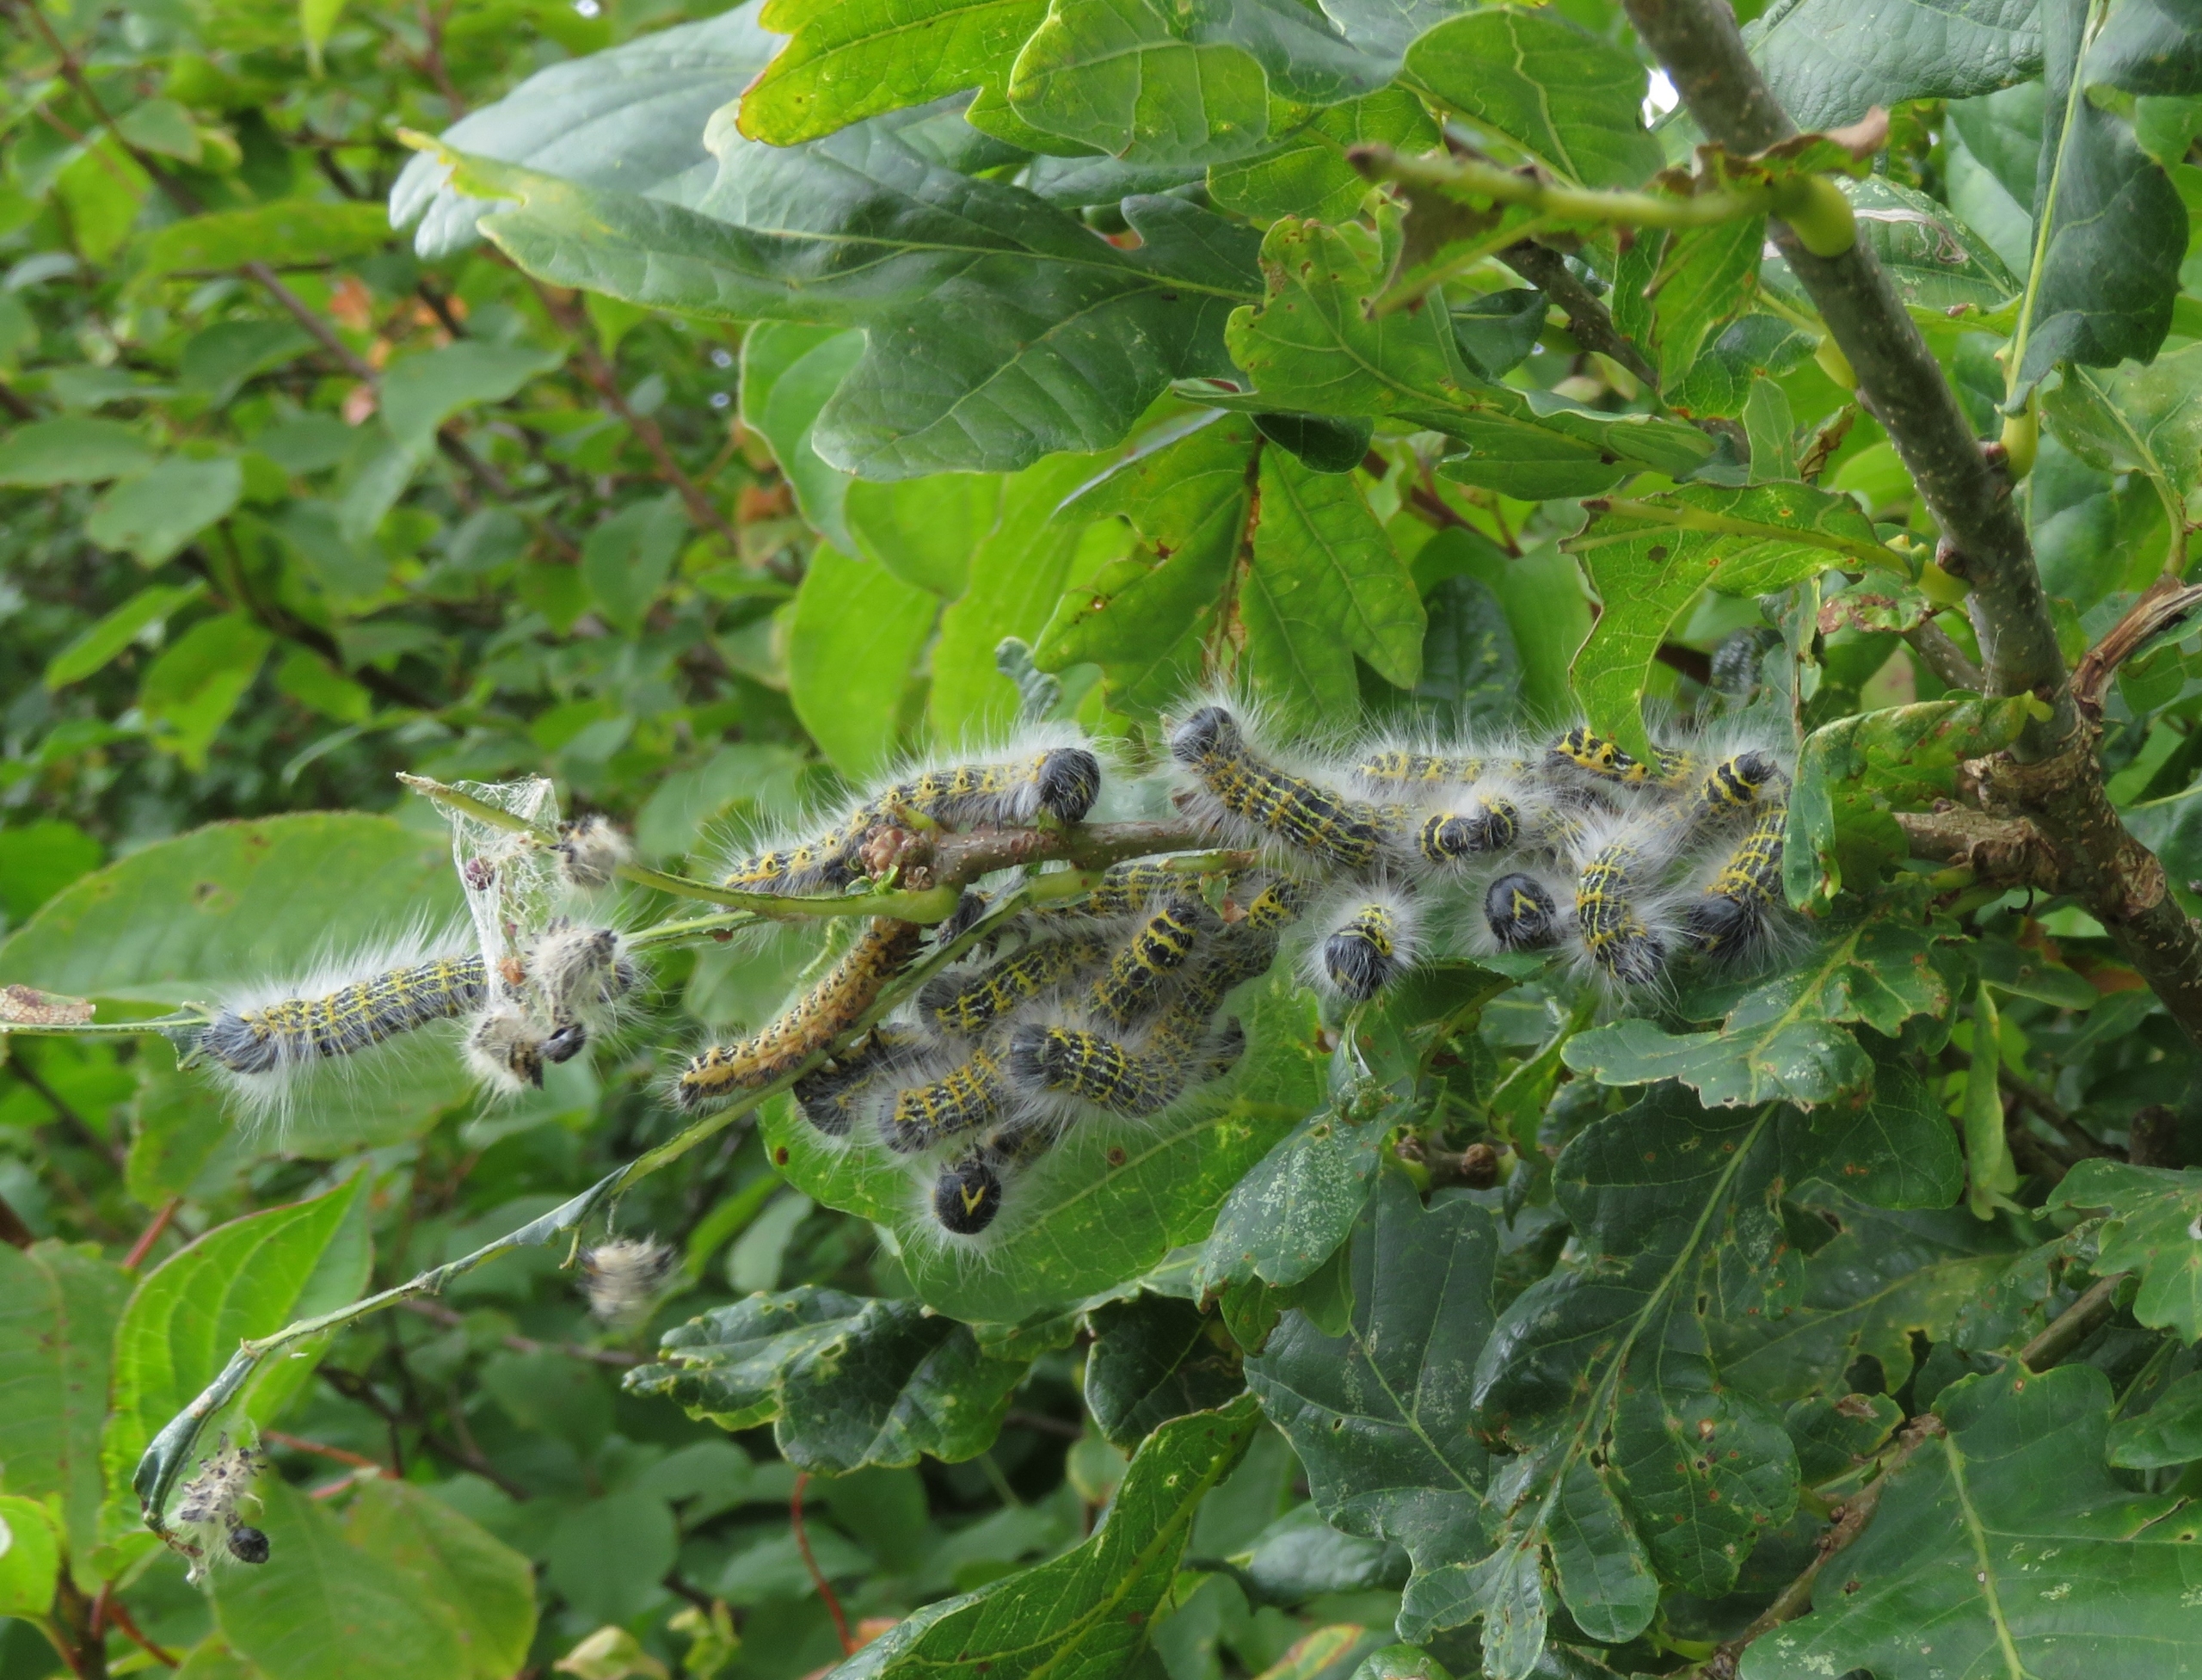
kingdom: Animalia
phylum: Arthropoda
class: Insecta
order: Lepidoptera
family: Notodontidae
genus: Phalera
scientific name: Phalera bucephala
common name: Måneplet
